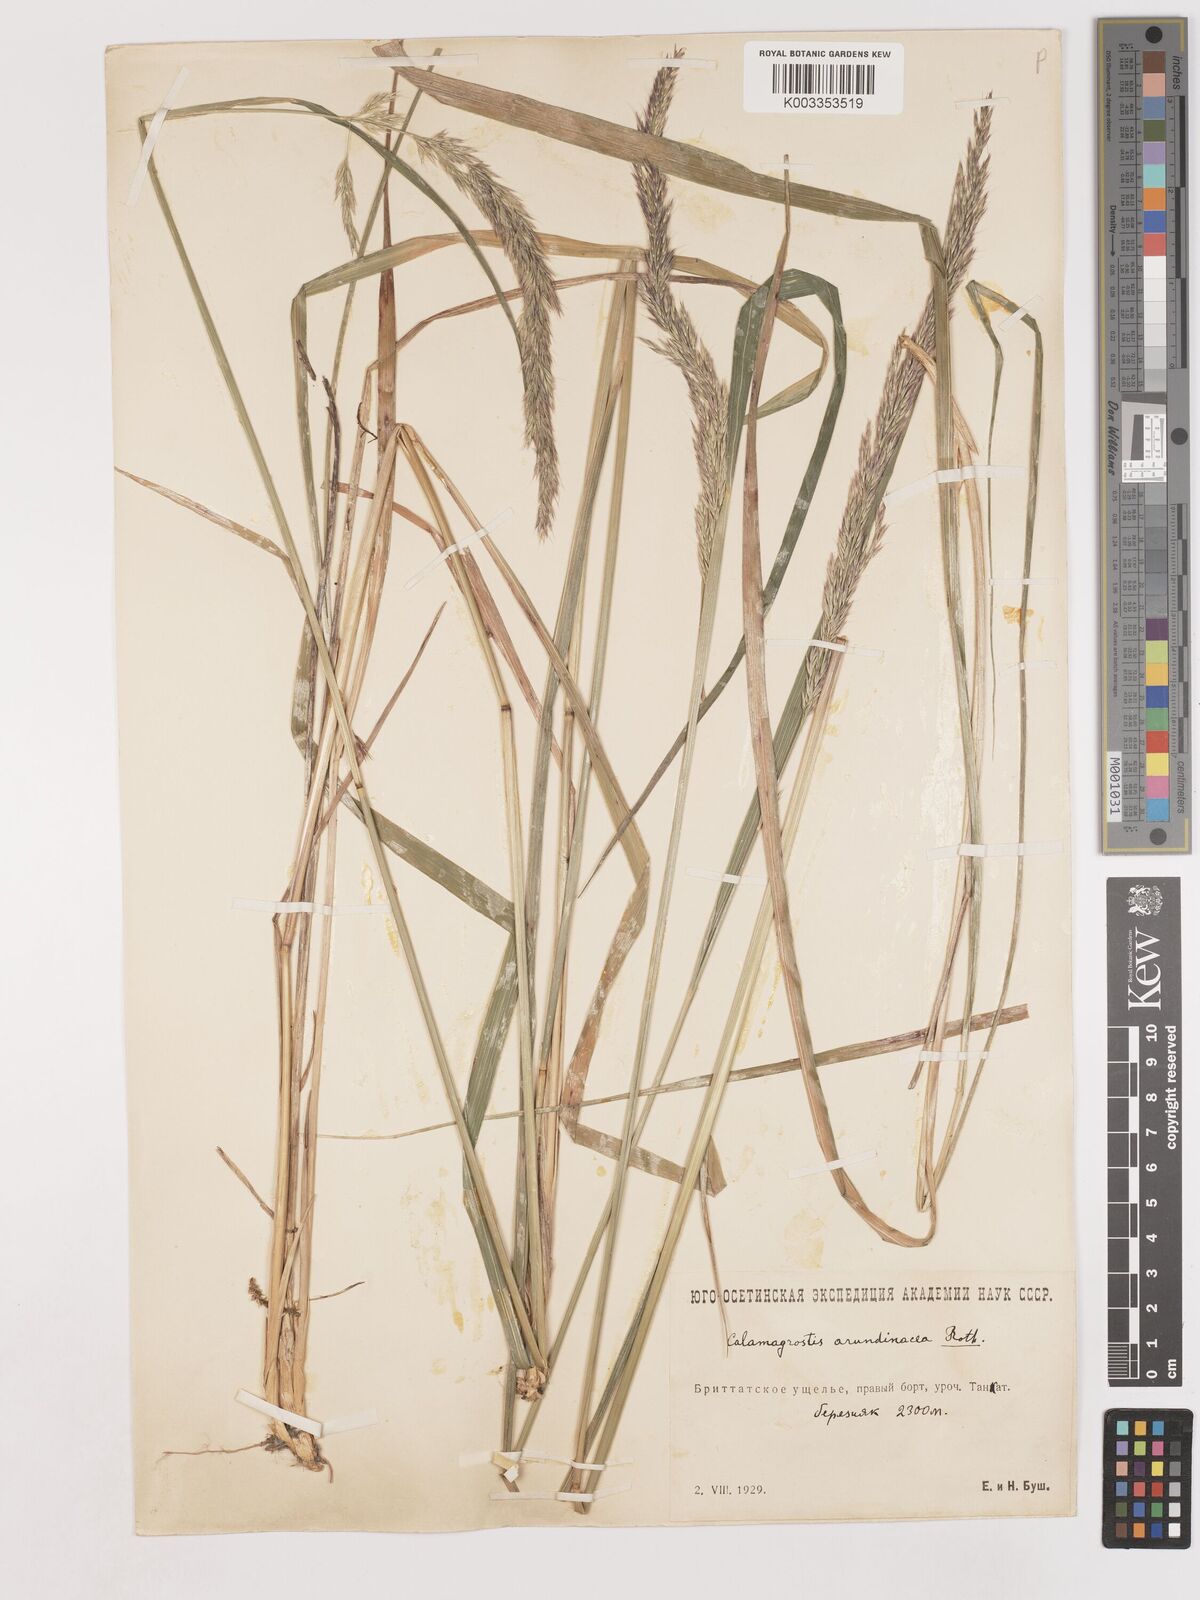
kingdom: Plantae
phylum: Tracheophyta
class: Liliopsida
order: Poales
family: Poaceae
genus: Calamagrostis
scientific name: Calamagrostis
